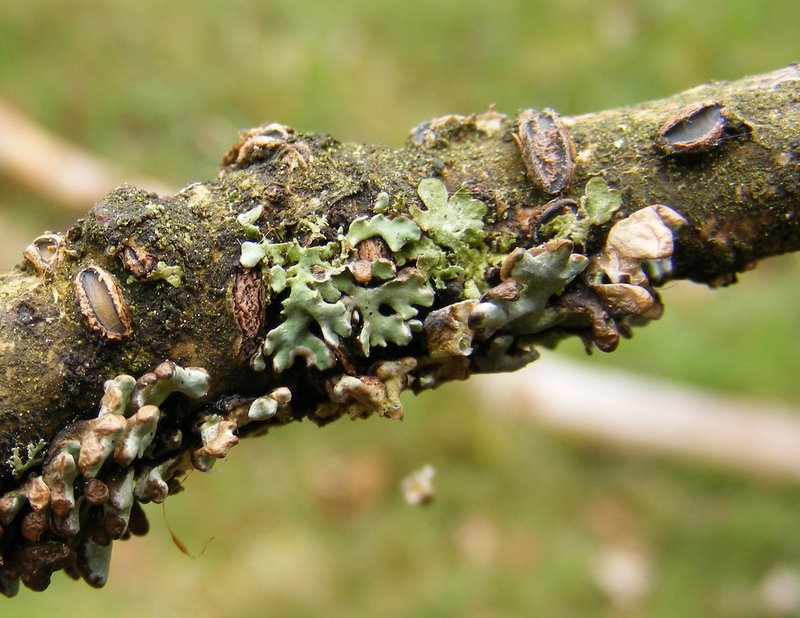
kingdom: Fungi
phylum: Ascomycota
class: Leotiomycetes
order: Rhytismatales
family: Rhytismataceae
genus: Colpoma
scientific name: Colpoma quercinum
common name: ege-sprækkeskive
